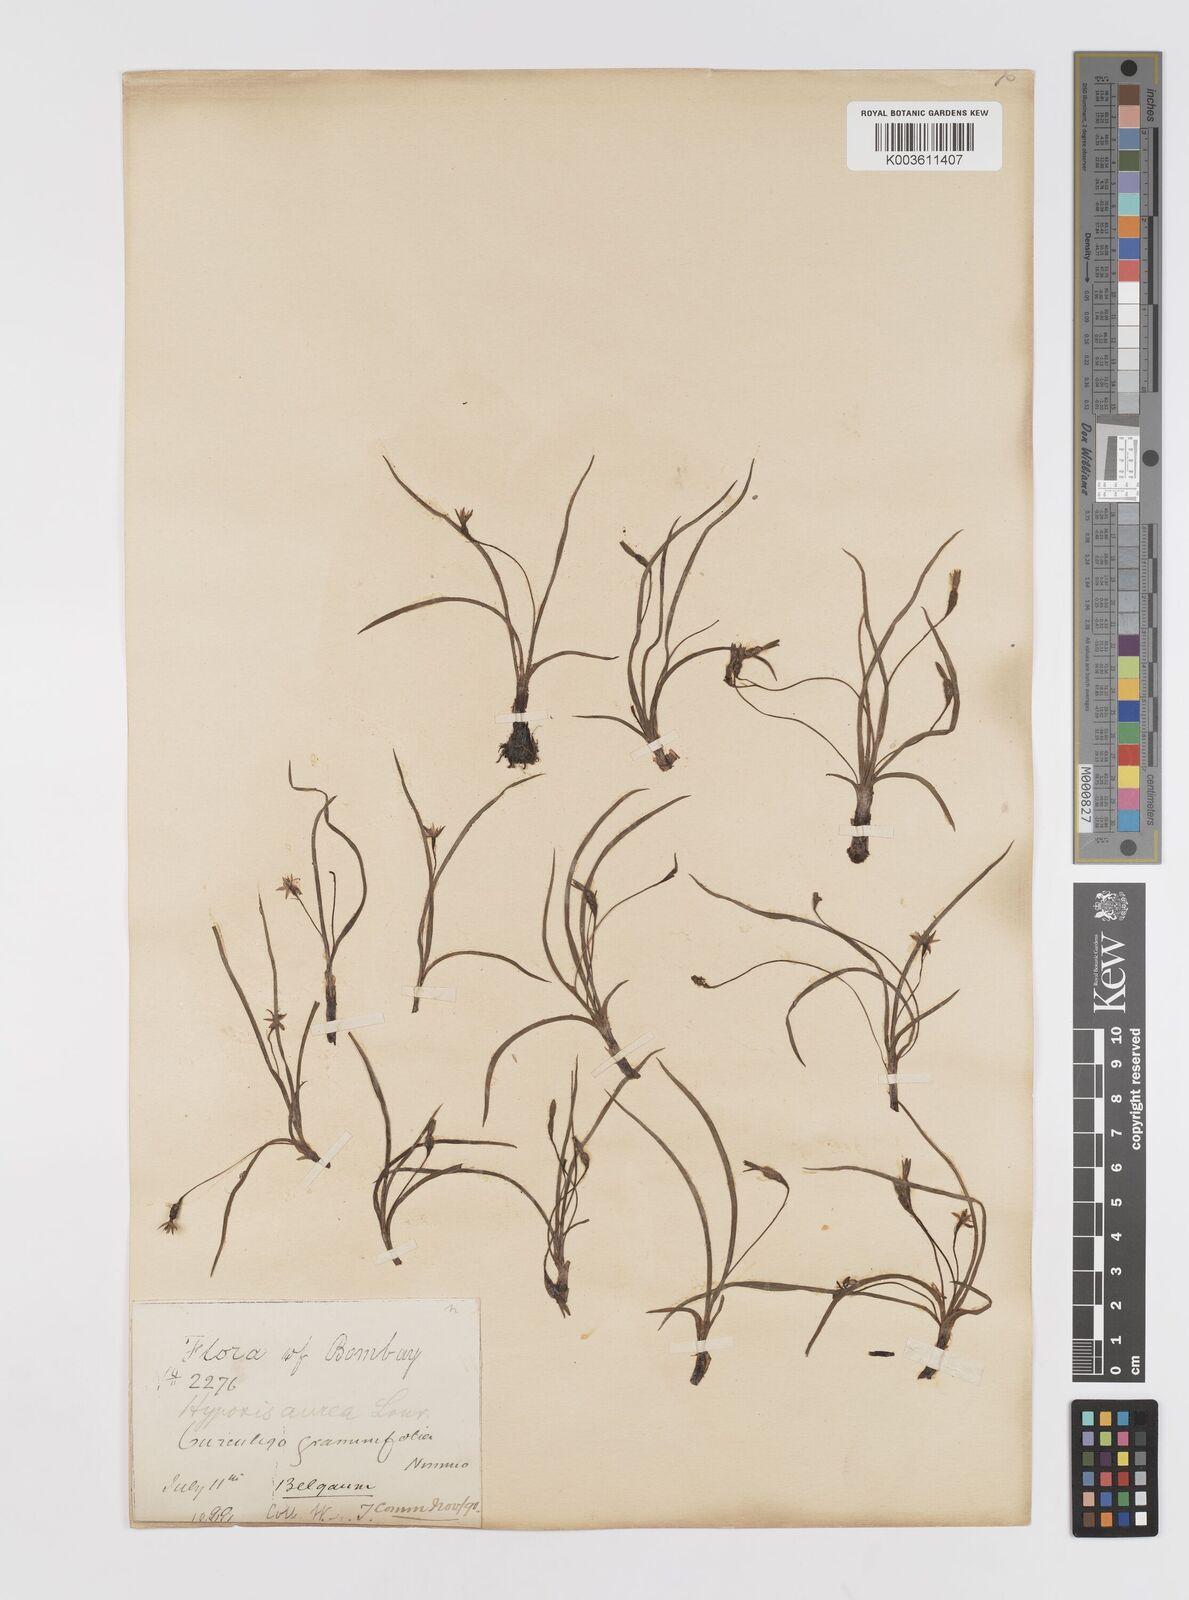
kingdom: Plantae
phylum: Tracheophyta
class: Liliopsida
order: Asparagales
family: Hypoxidaceae
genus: Hypoxis
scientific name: Hypoxis aurea
